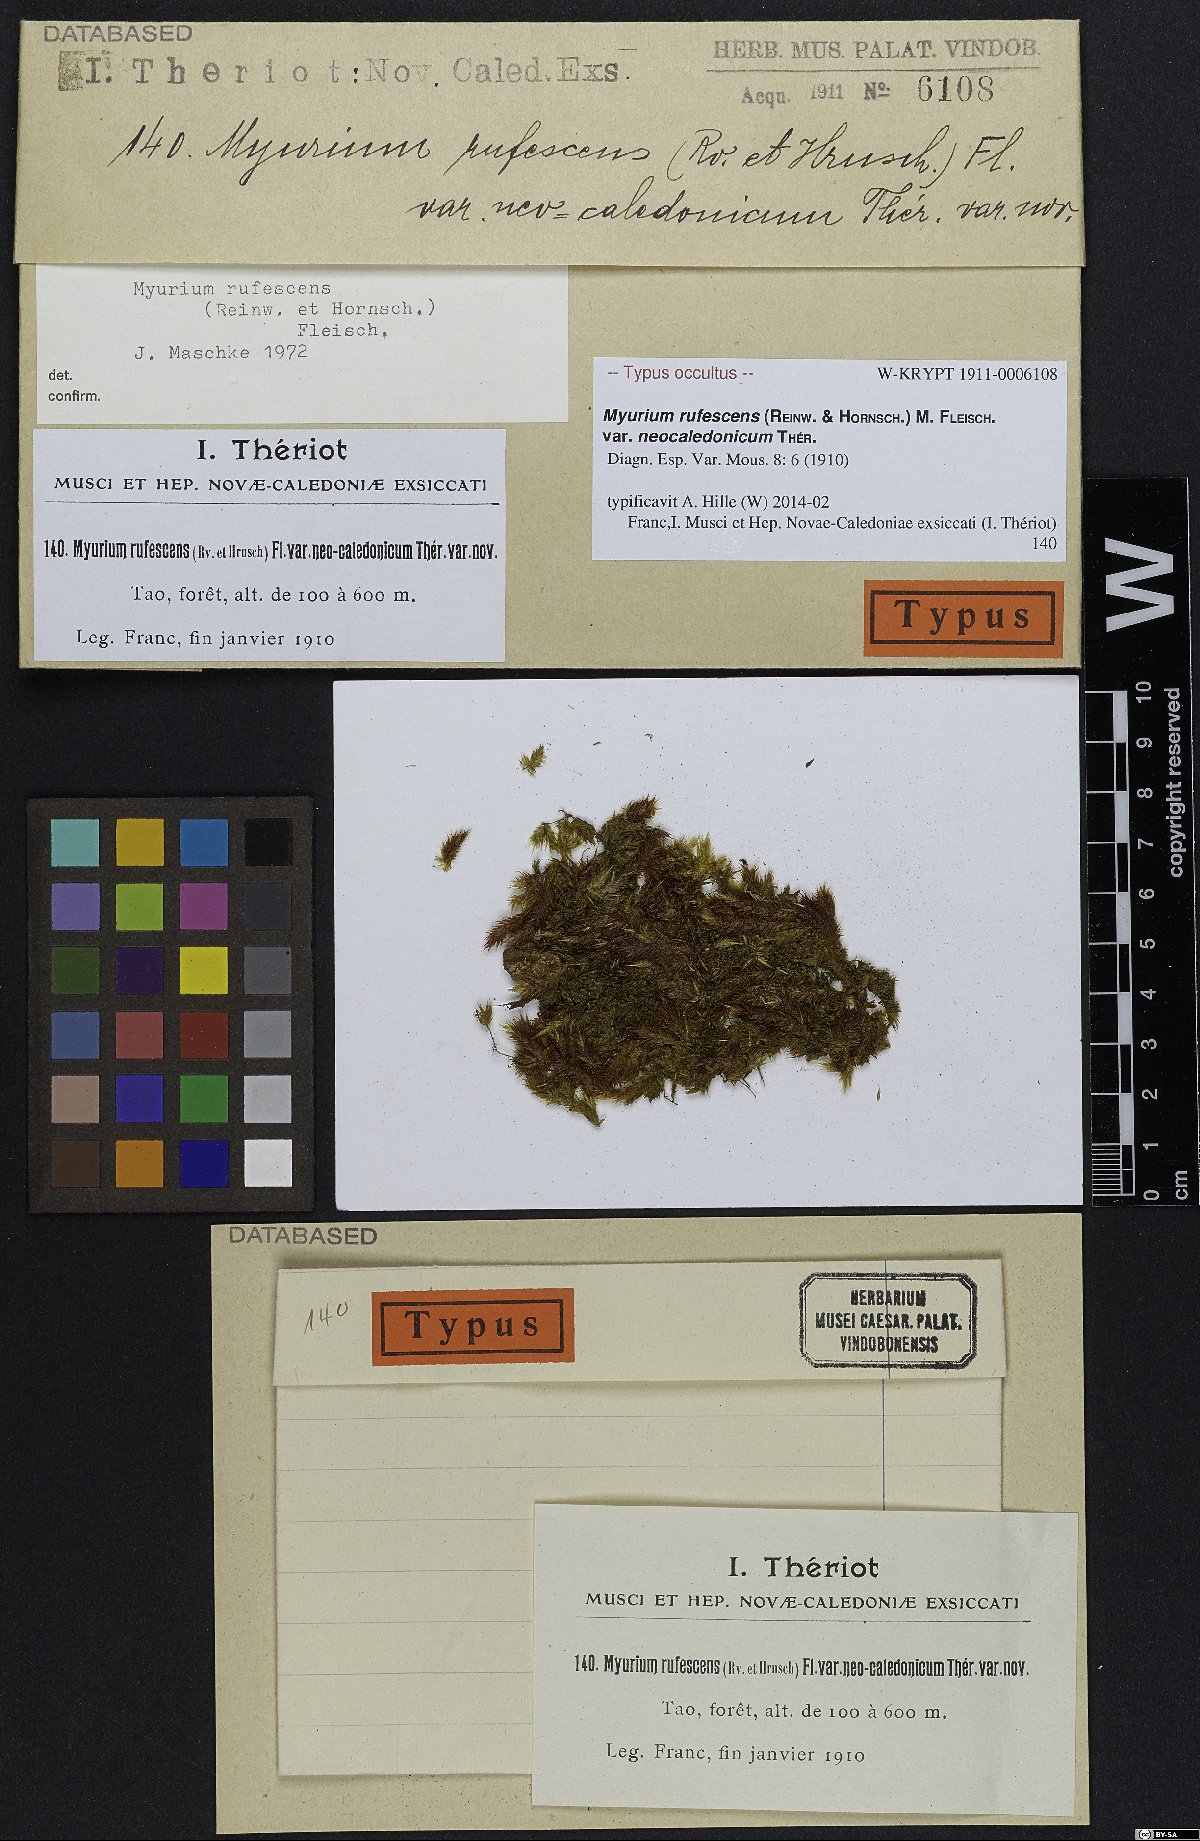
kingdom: Plantae
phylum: Bryophyta
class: Bryopsida
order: Hypnales
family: Myuriaceae
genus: Oedicladium
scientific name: Oedicladium rufescens
